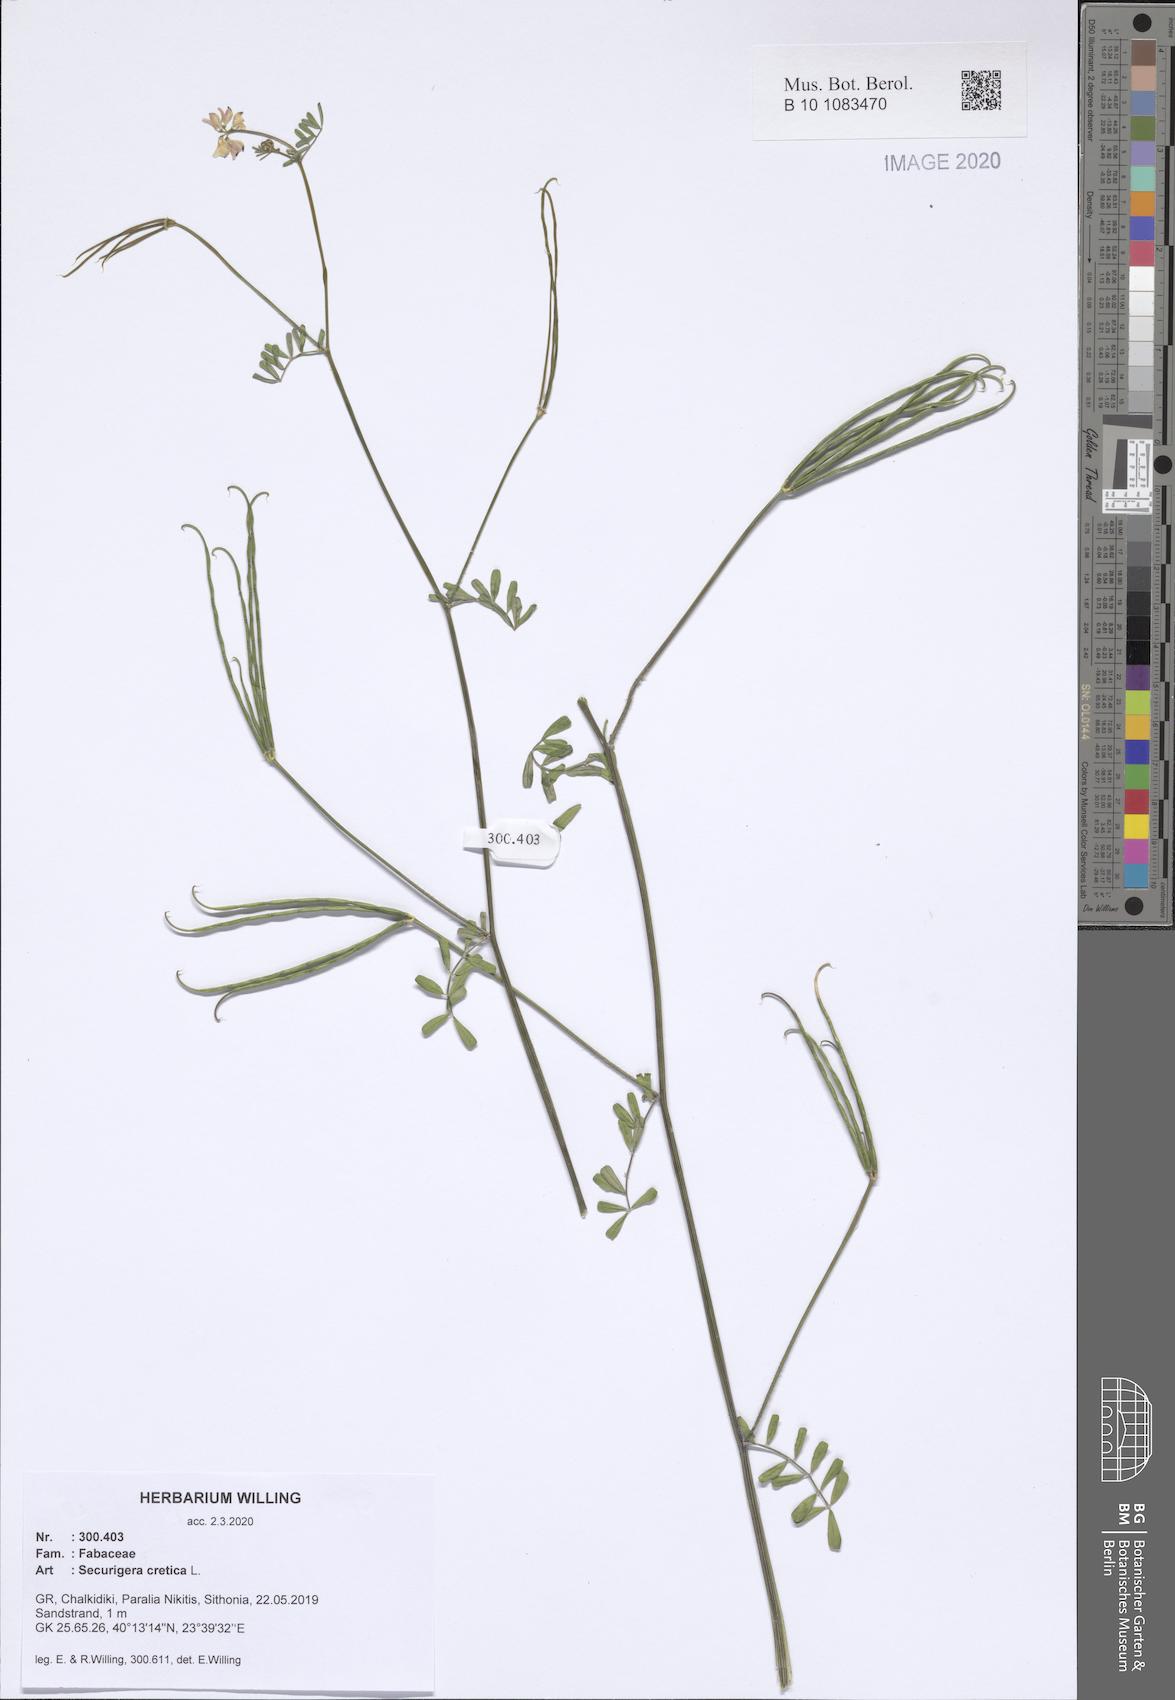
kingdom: Plantae
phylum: Tracheophyta
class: Magnoliopsida
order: Fabales
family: Fabaceae
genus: Coronilla
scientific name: Coronilla cretica
